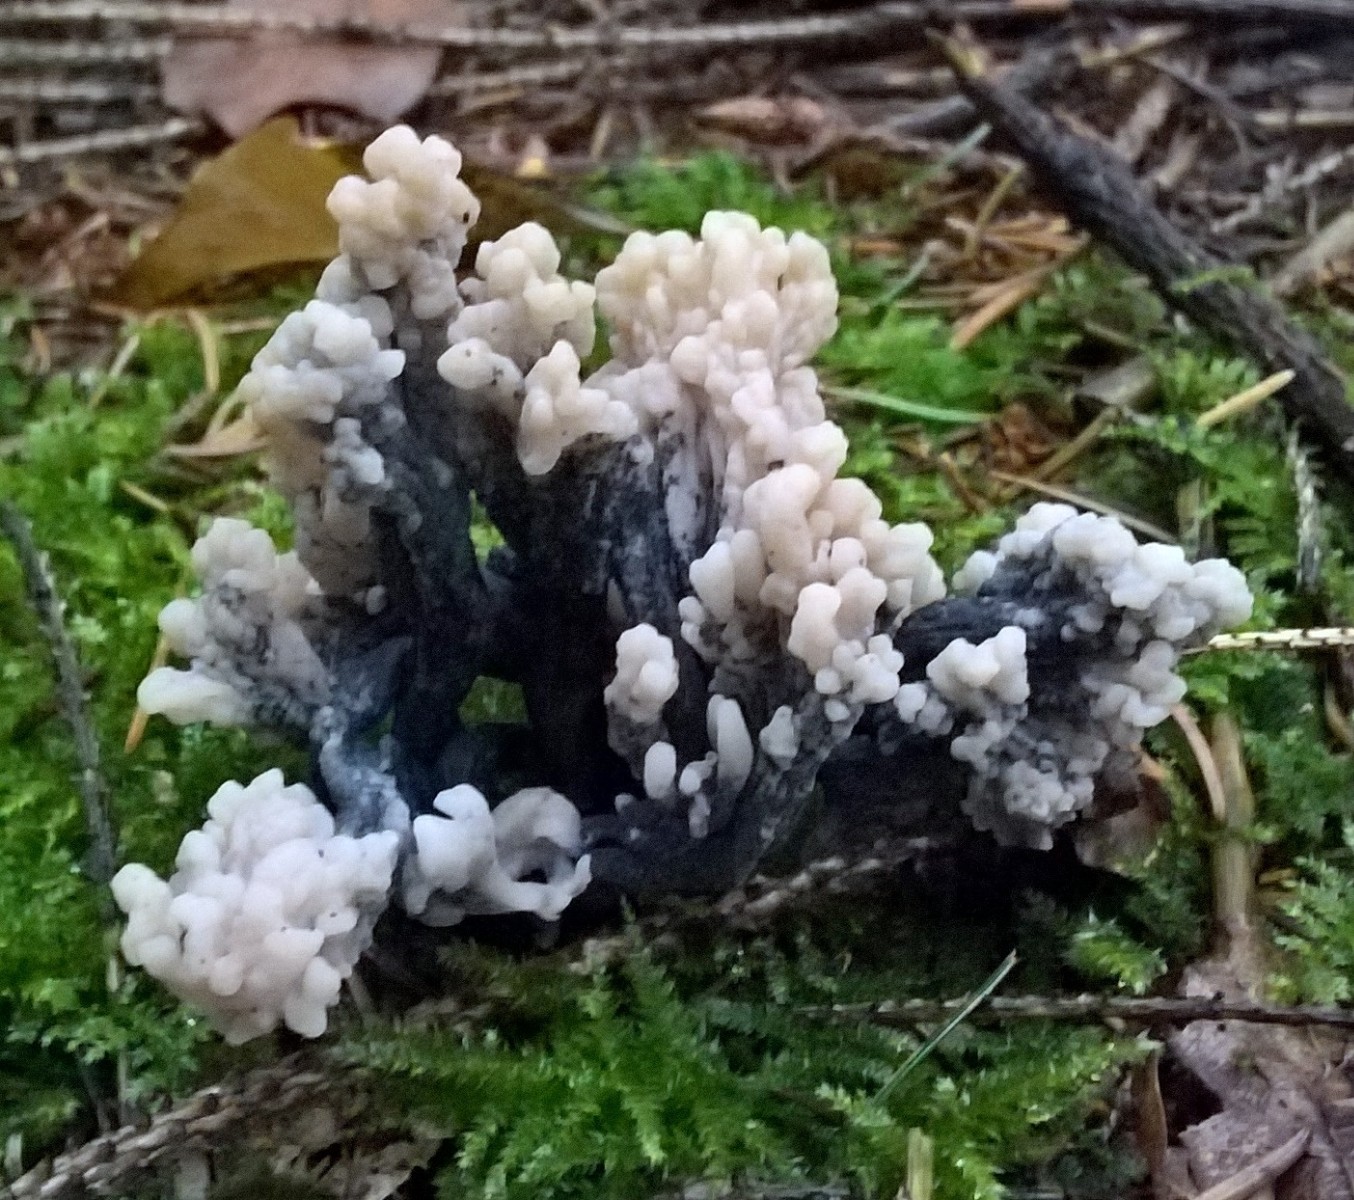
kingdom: Fungi
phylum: Ascomycota
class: Sordariomycetes
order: Sordariales
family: Helminthosphaeriaceae
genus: Helminthosphaeria
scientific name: Helminthosphaeria clavariarum
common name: trold-svampesnyltekerne
